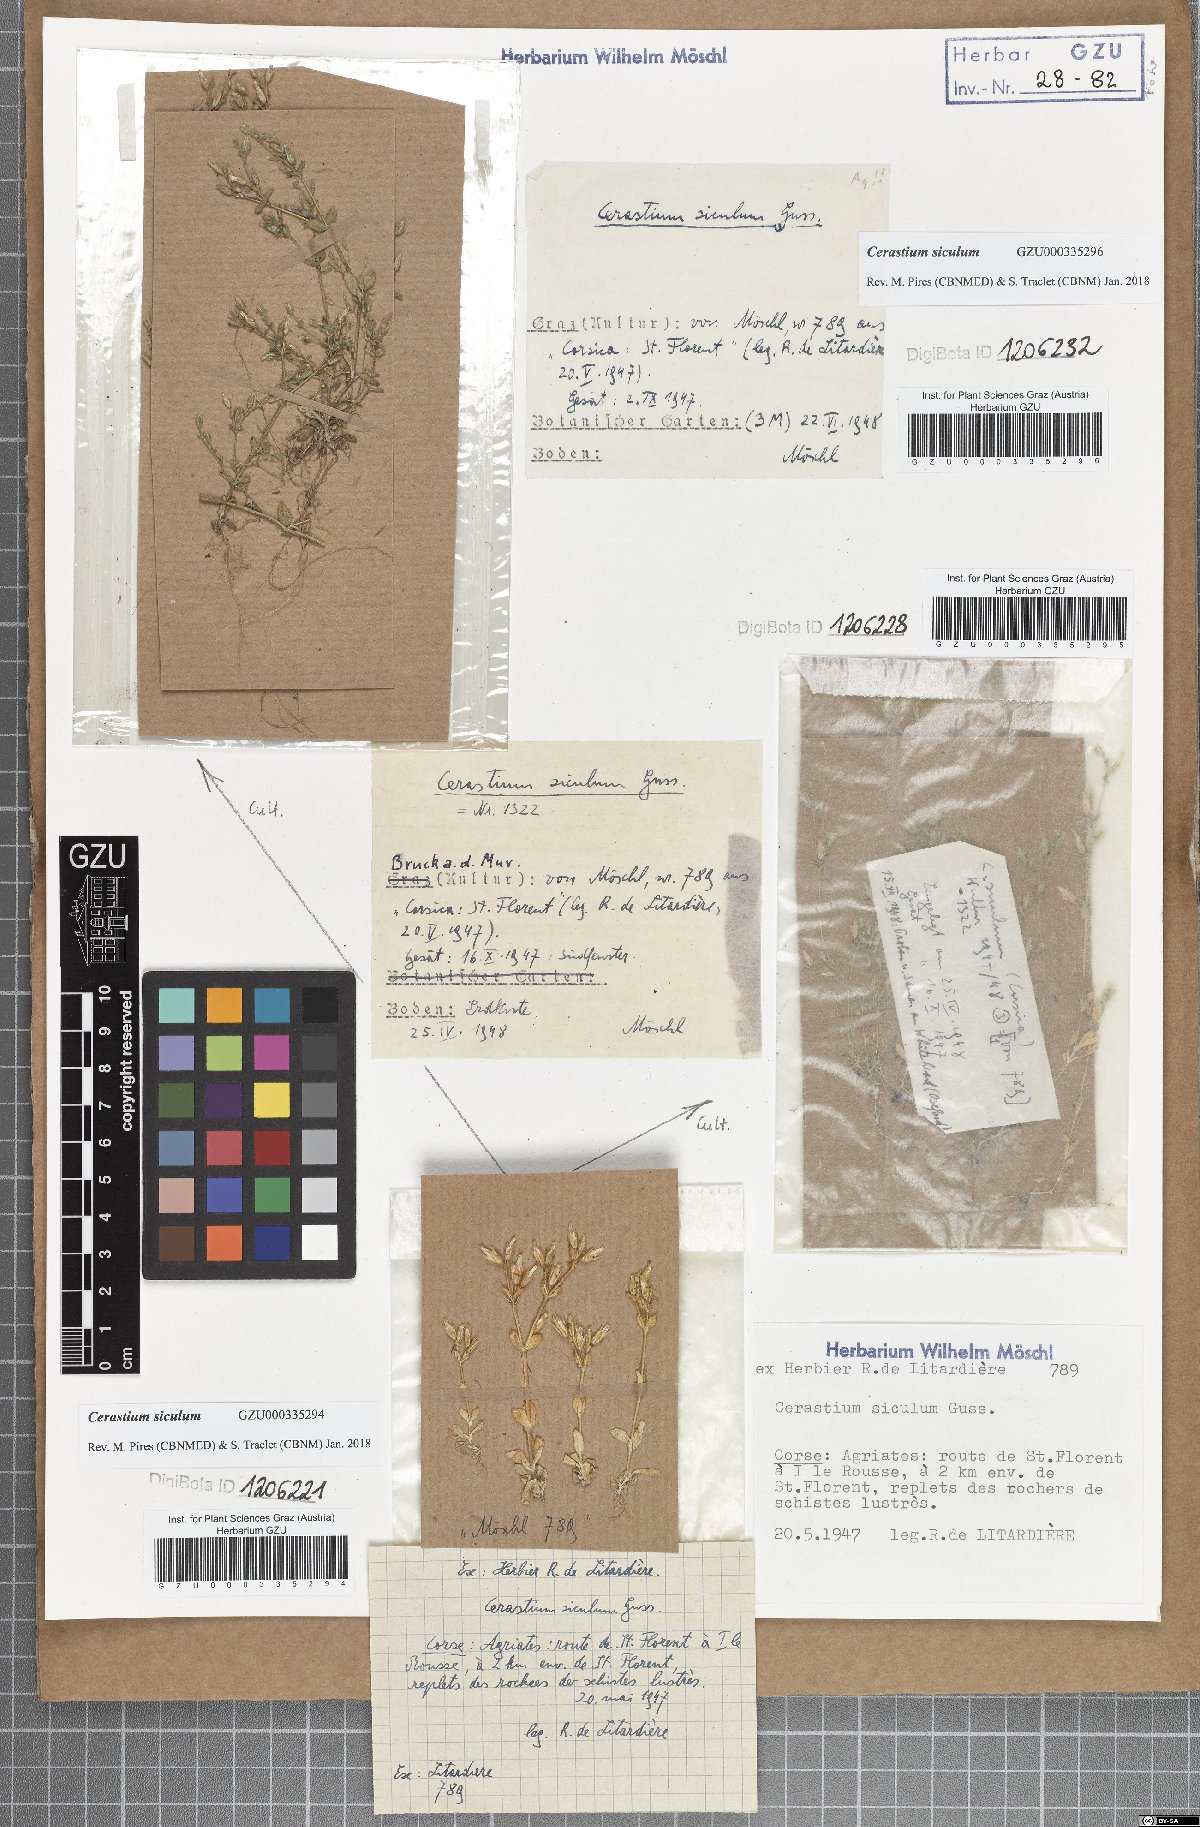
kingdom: Plantae
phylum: Tracheophyta
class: Magnoliopsida
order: Caryophyllales
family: Caryophyllaceae
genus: Cerastium
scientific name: Cerastium siculum
